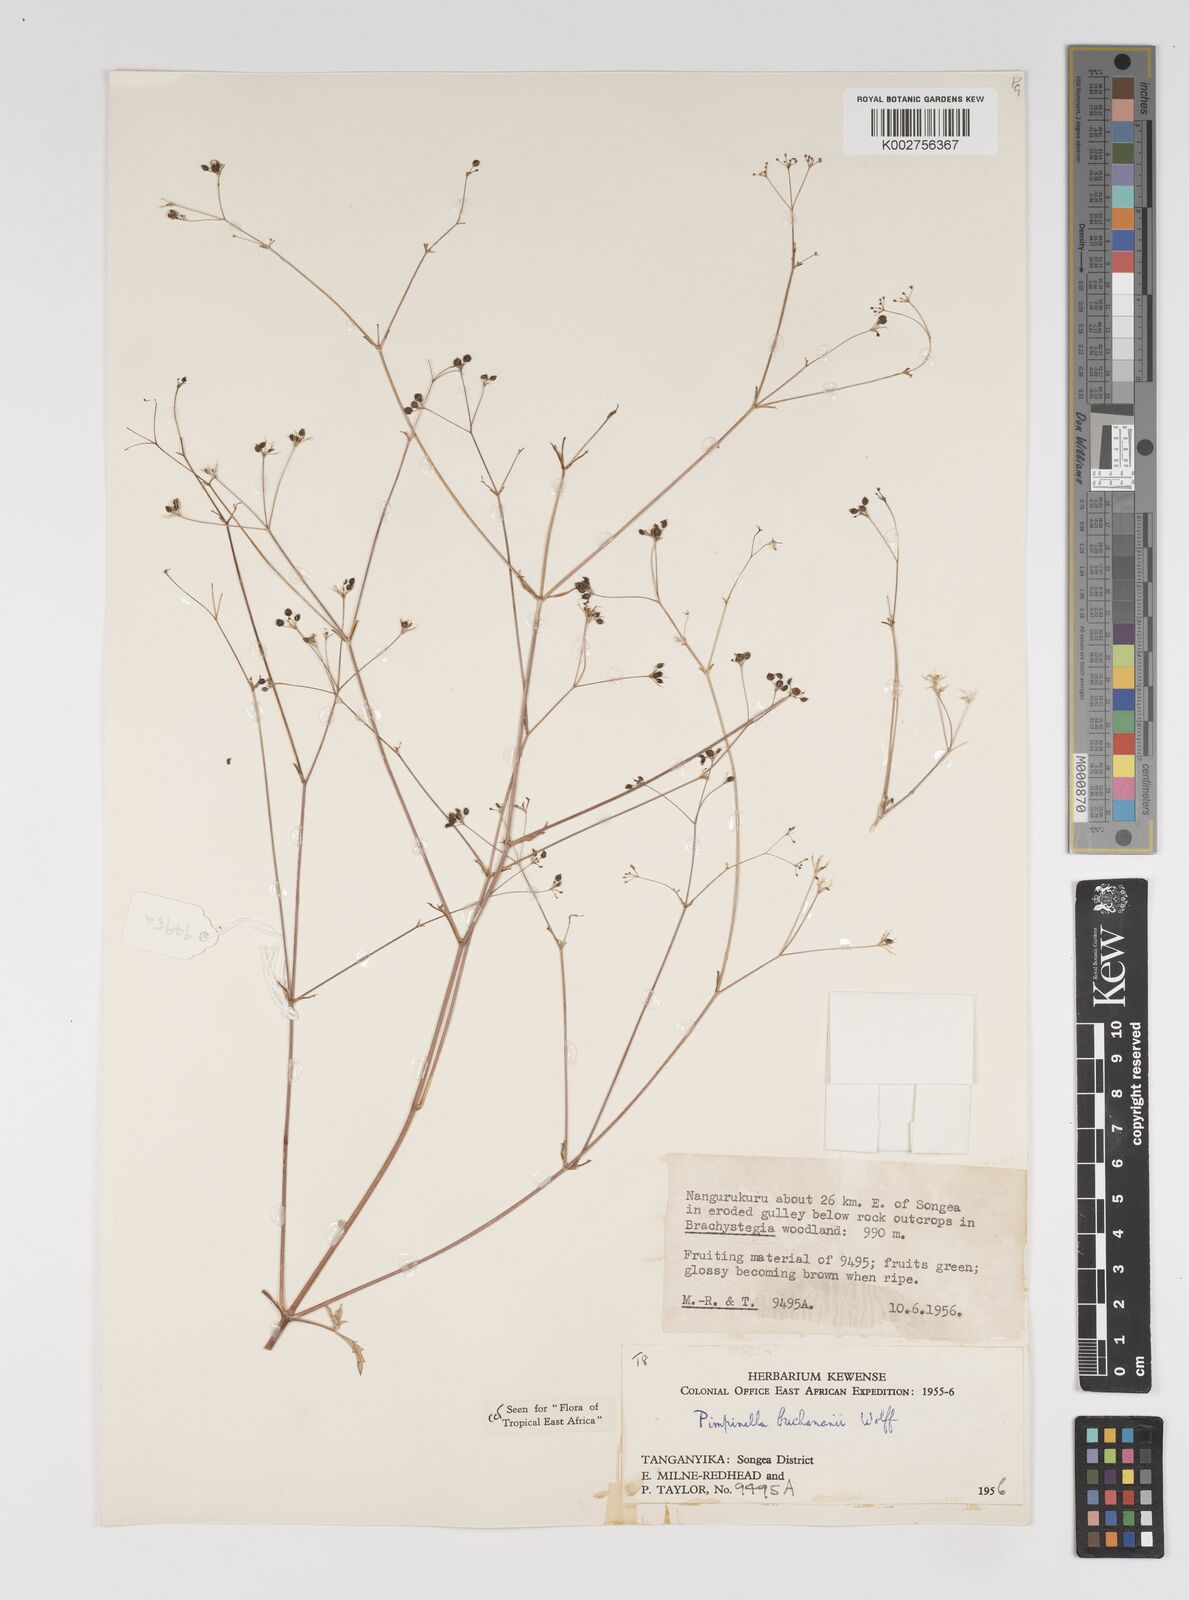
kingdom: Plantae
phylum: Tracheophyta
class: Magnoliopsida
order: Apiales
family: Apiaceae
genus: Pimpinella
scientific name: Pimpinella buchananii
